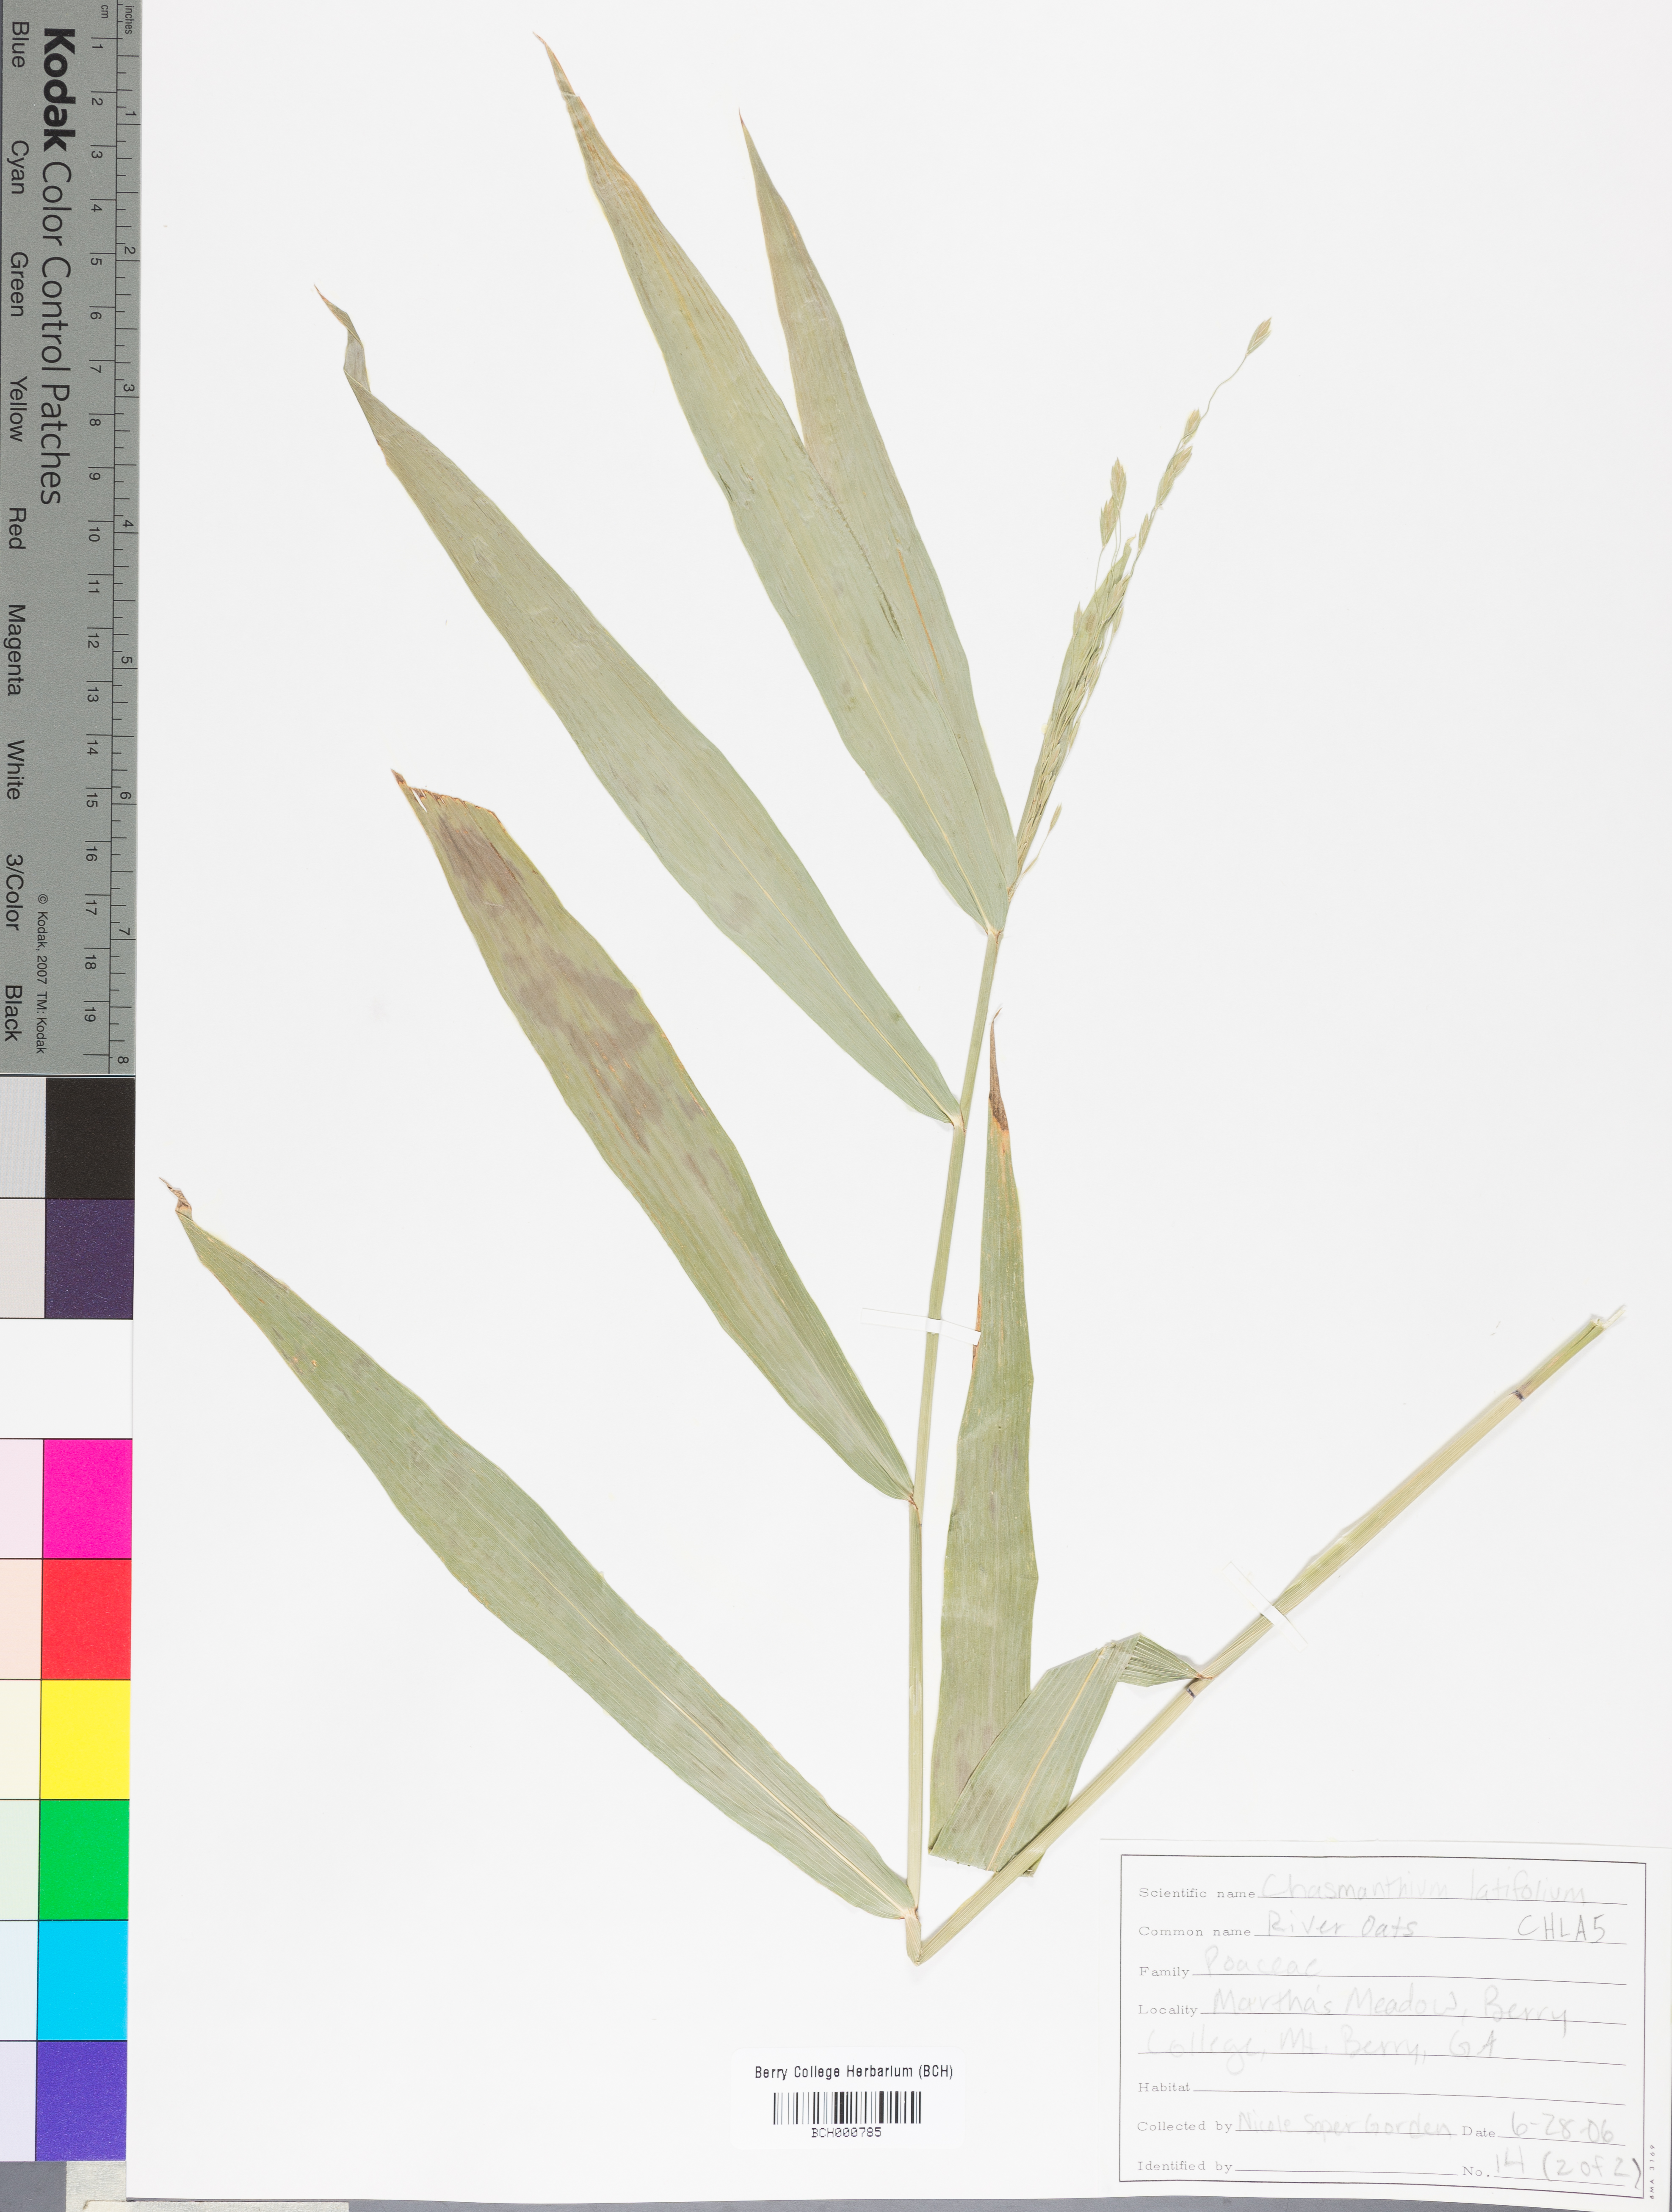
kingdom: Plantae
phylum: Tracheophyta
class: Liliopsida
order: Poales
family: Poaceae
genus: Chasmanthium
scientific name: Chasmanthium latifolium
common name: Broad-leaved chasmanthium
